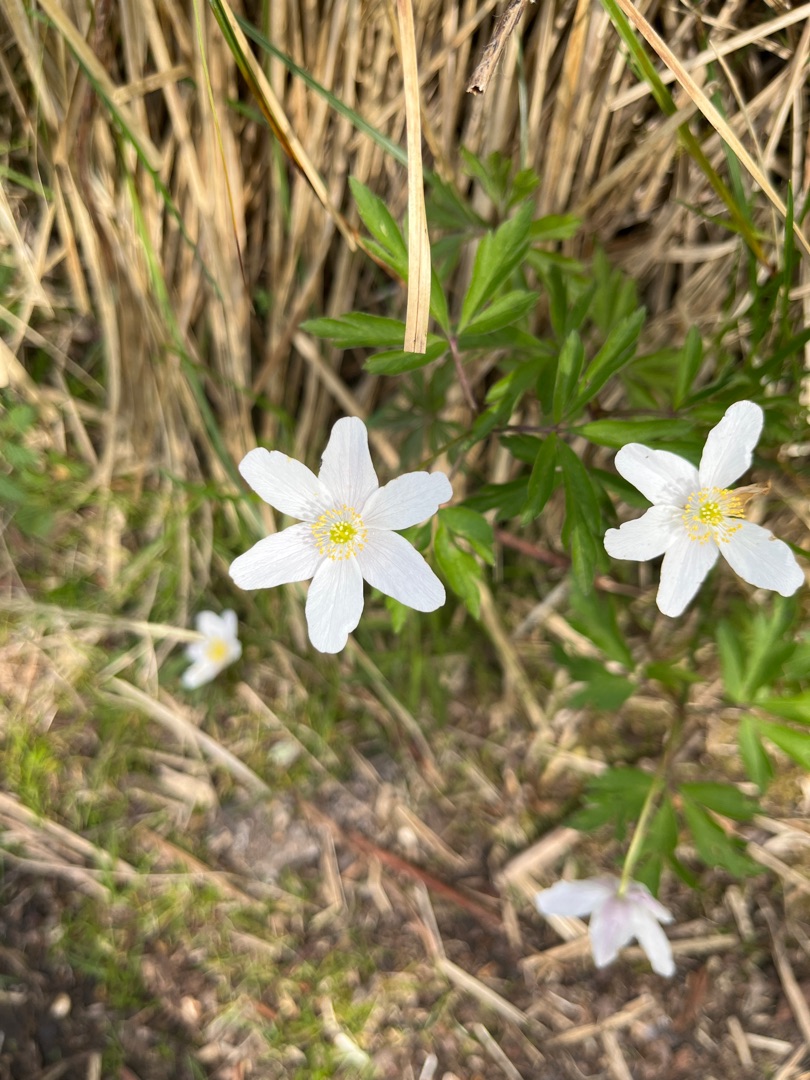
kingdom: Plantae
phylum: Tracheophyta
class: Magnoliopsida
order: Ranunculales
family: Ranunculaceae
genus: Anemone
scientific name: Anemone nemorosa
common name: Hvid anemone
